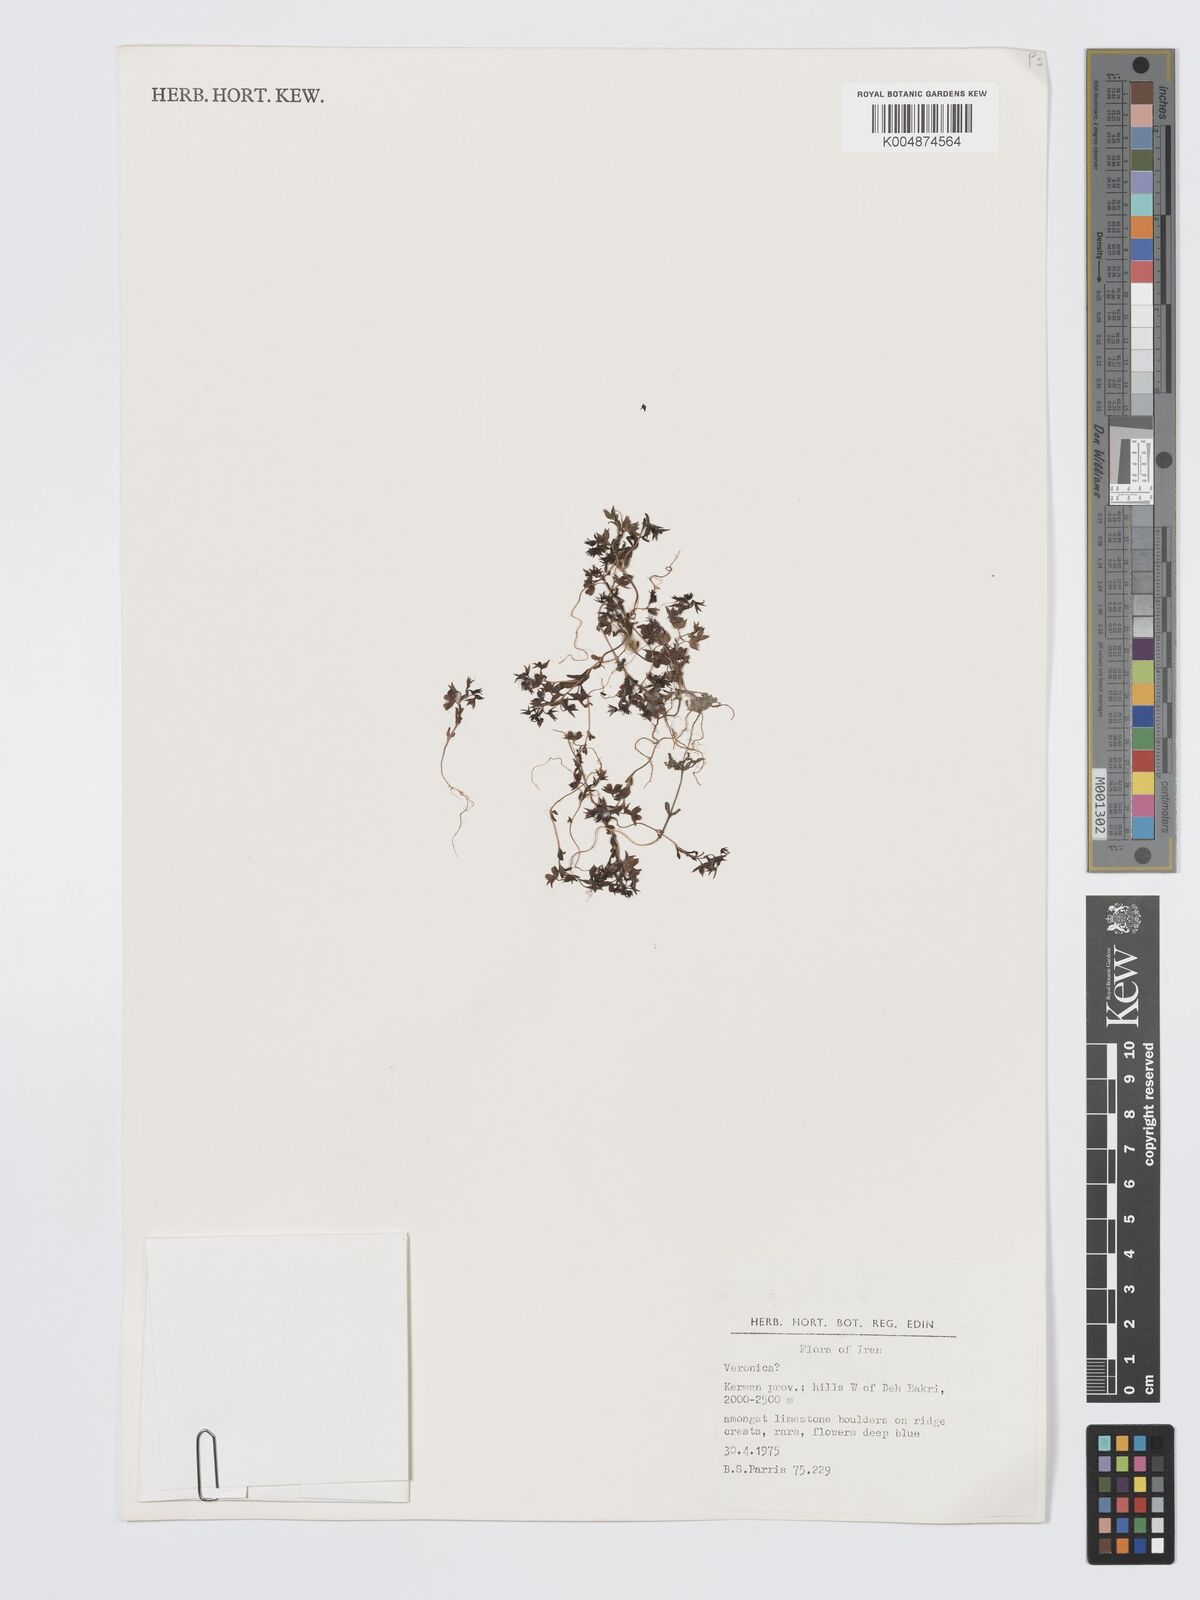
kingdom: Plantae
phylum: Tracheophyta
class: Magnoliopsida
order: Lamiales
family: Plantaginaceae
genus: Veronica
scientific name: Veronica
